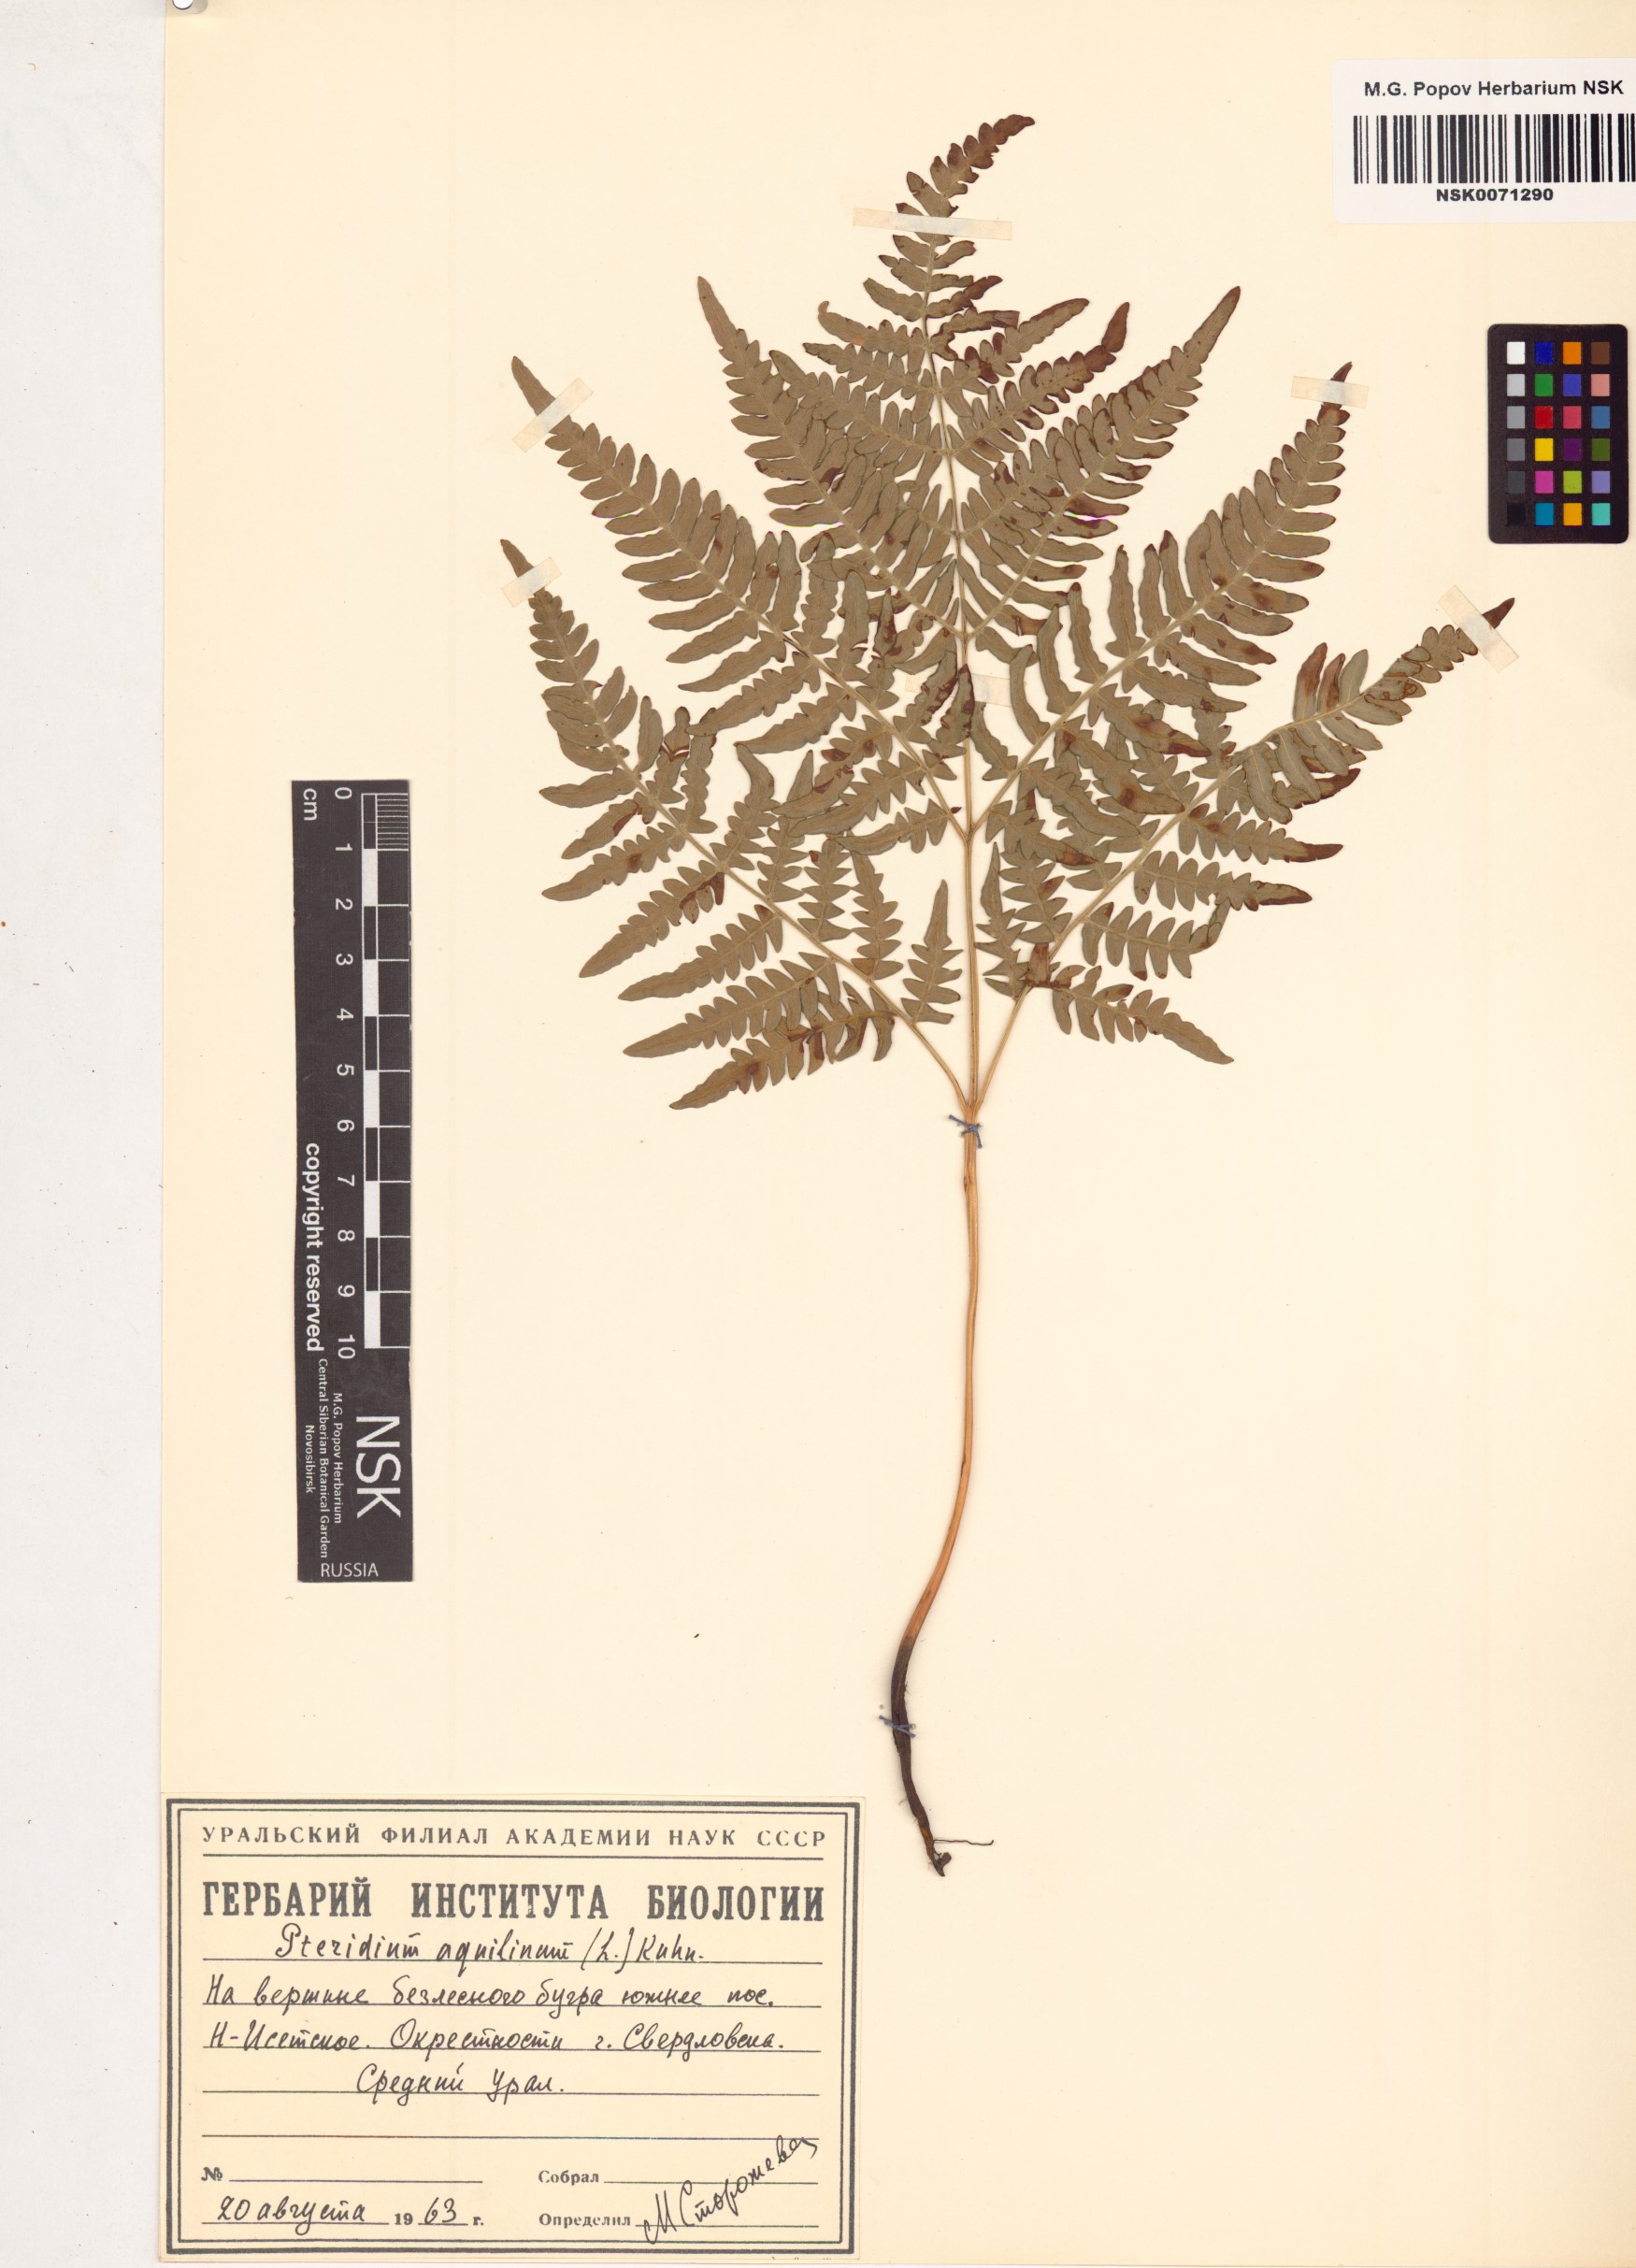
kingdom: Plantae
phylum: Tracheophyta
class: Polypodiopsida
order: Polypodiales
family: Dennstaedtiaceae
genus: Pteridium
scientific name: Pteridium aquilinum
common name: Bracken
